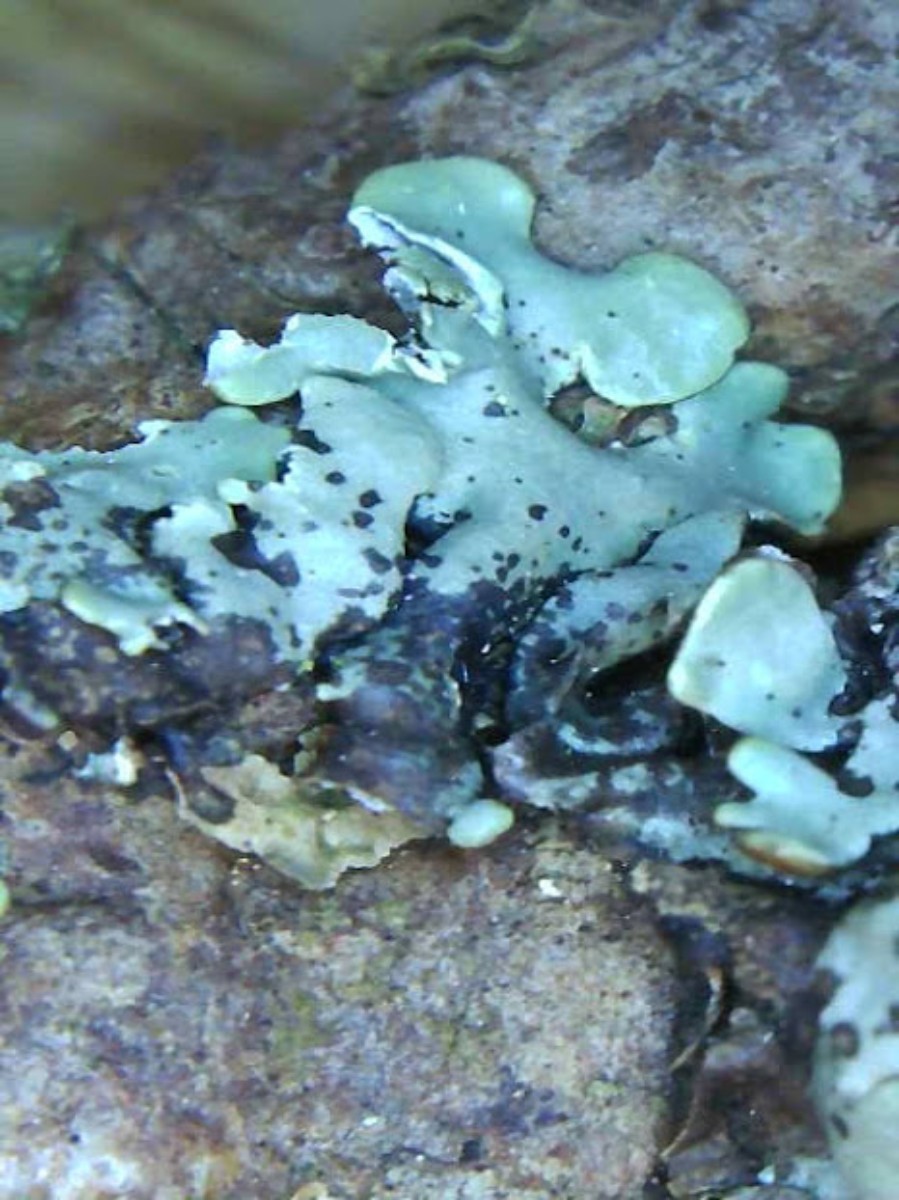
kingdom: Fungi
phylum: Ascomycota
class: Lecanoromycetes
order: Lecanorales
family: Parmeliaceae
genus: Hypogymnia
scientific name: Hypogymnia physodes
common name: almindelig kvistlav
